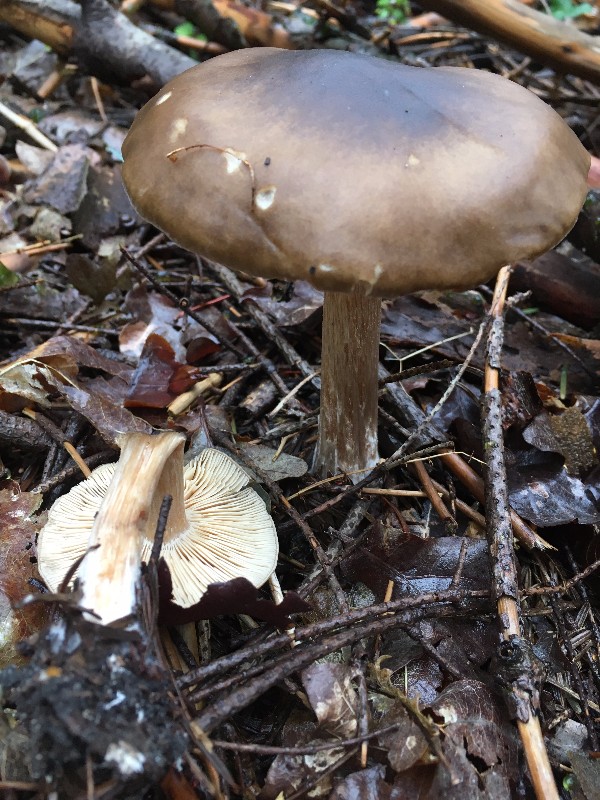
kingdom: Fungi
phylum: Basidiomycota
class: Agaricomycetes
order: Agaricales
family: Tricholomataceae
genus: Melanoleuca
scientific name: Melanoleuca cognata
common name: gyldengrå munkehat
